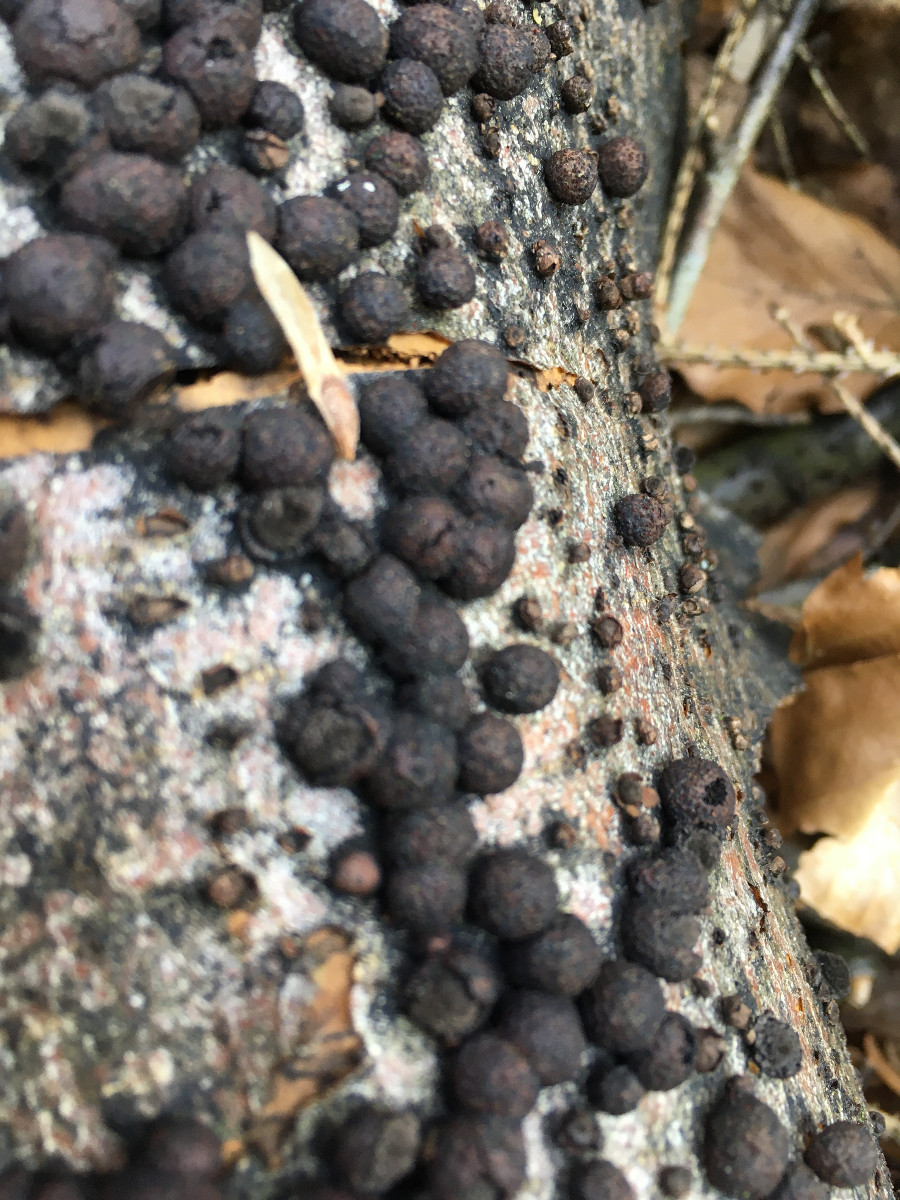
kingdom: Fungi
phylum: Ascomycota
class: Sordariomycetes
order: Xylariales
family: Hypoxylaceae
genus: Hypoxylon
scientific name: Hypoxylon fragiforme
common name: kuljordbær
